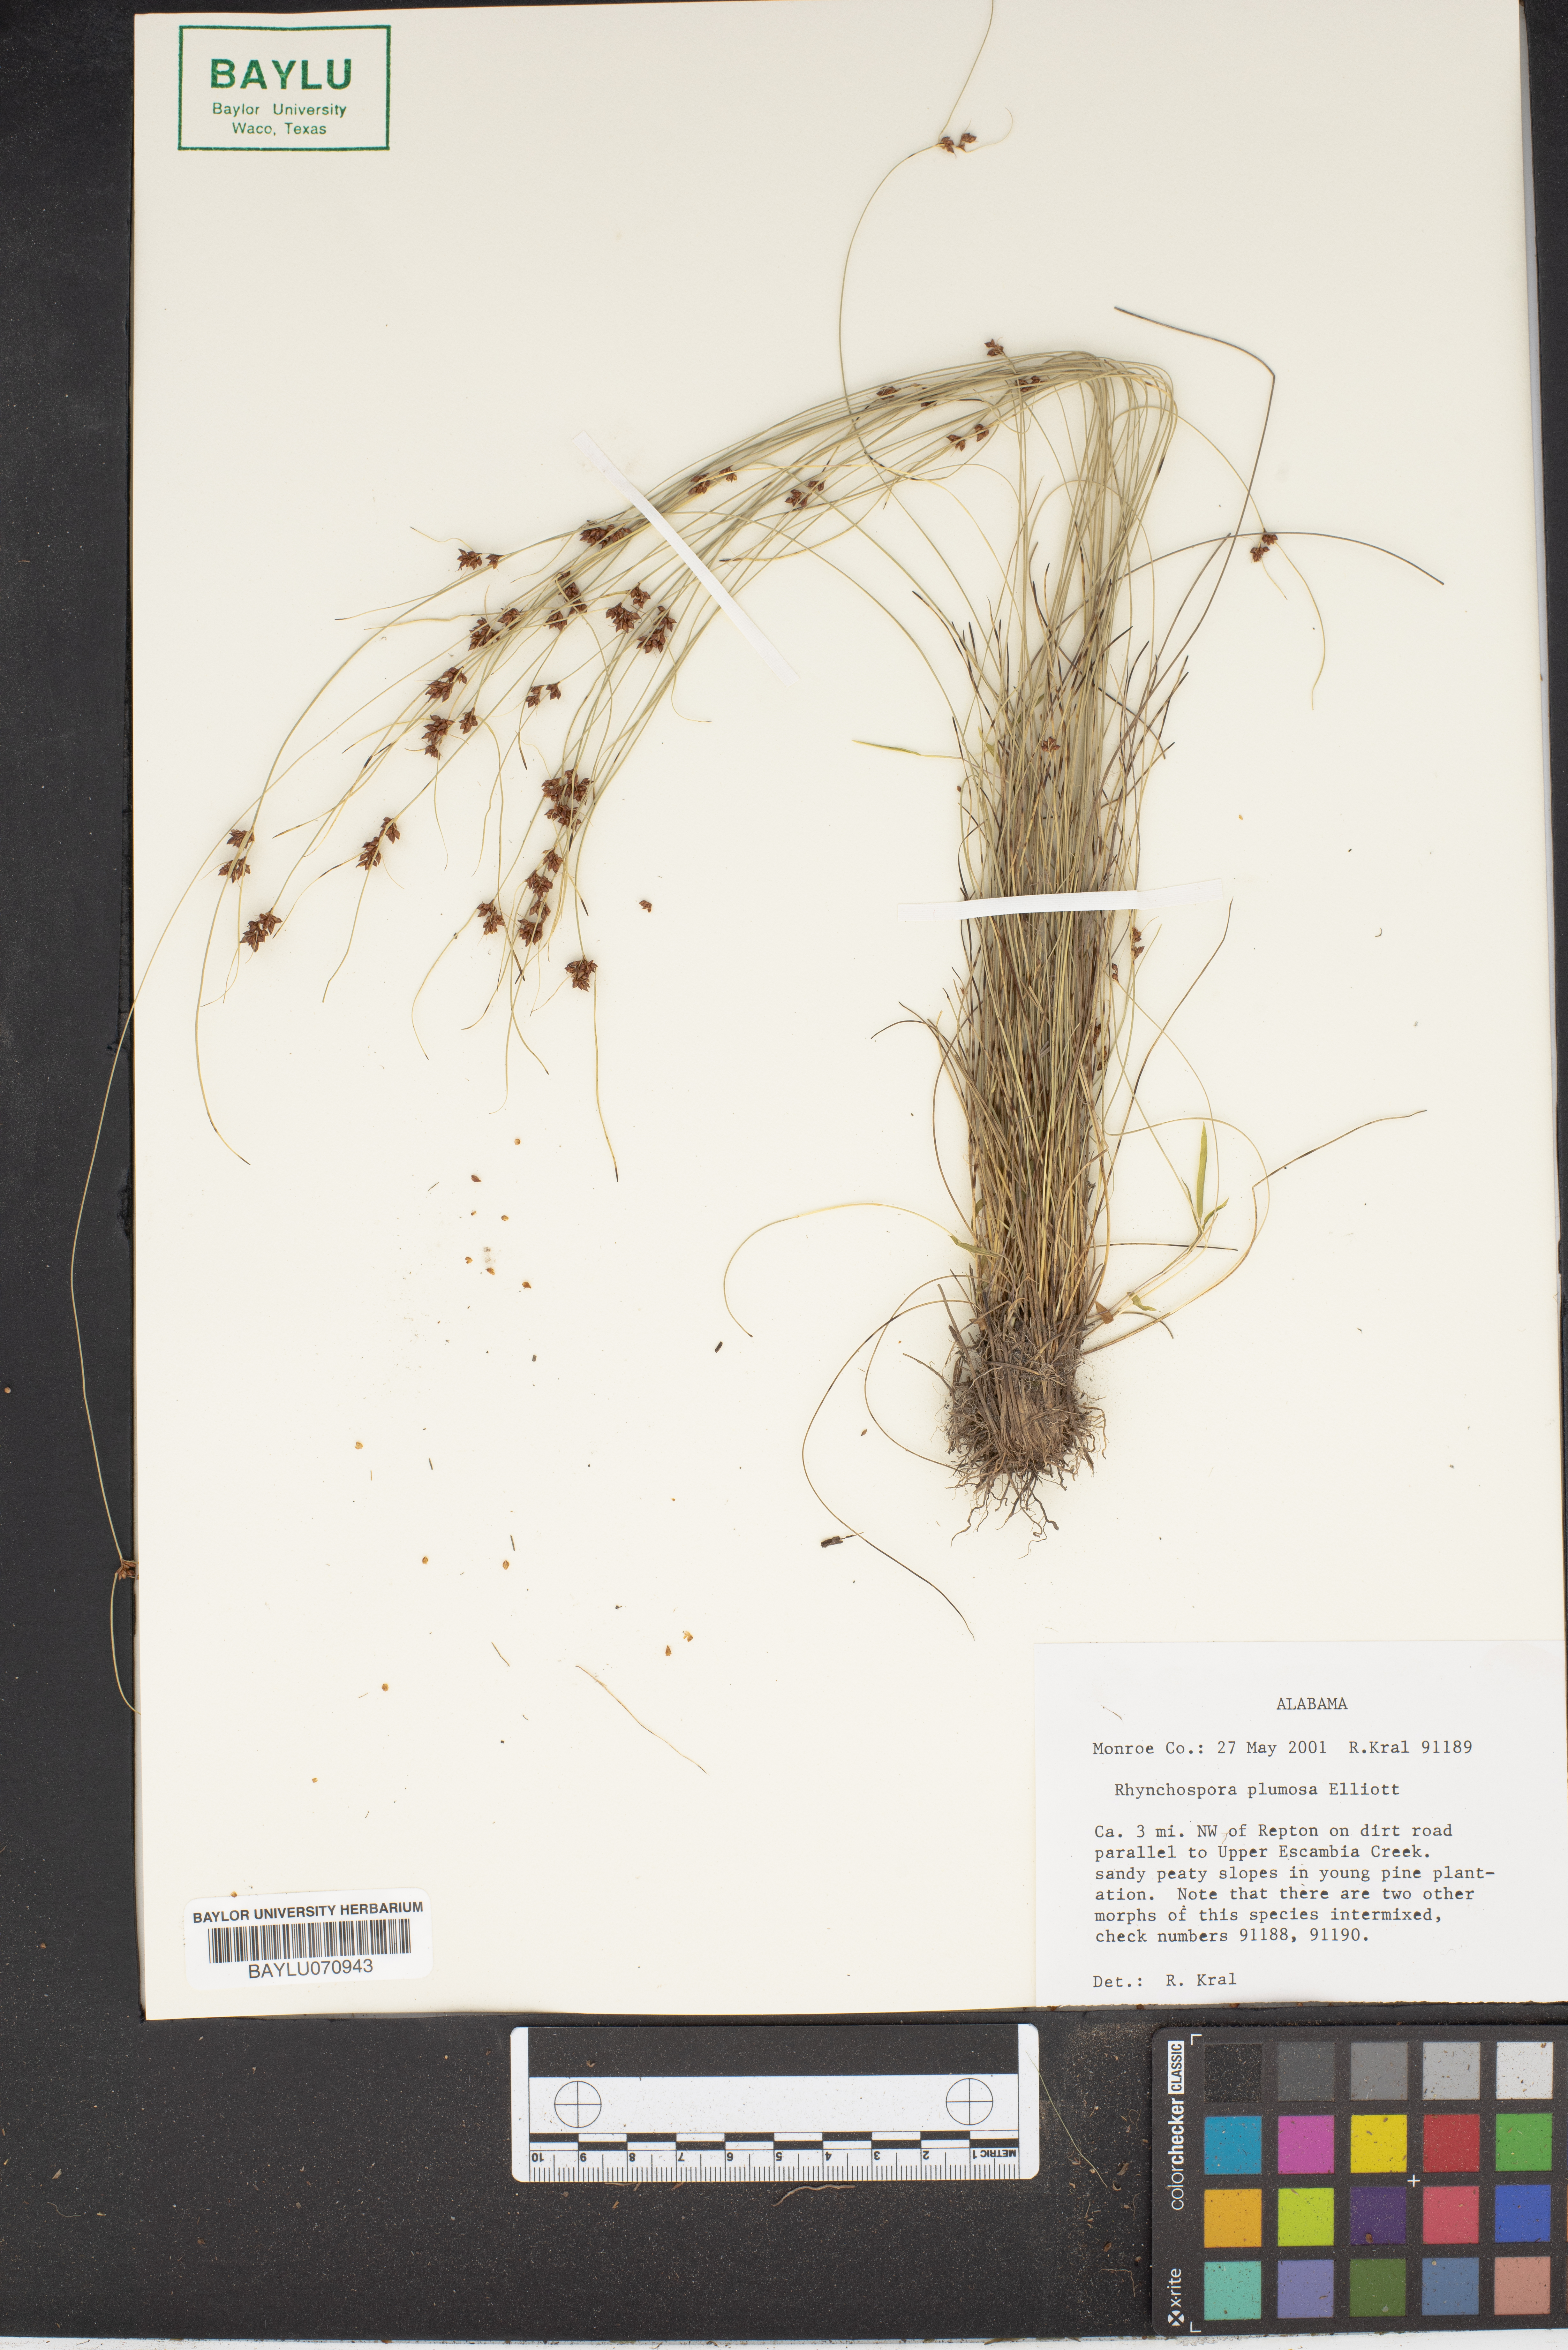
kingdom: Plantae
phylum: Tracheophyta
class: Liliopsida
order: Poales
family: Cyperaceae
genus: Rhynchospora
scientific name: Rhynchospora plumosa
